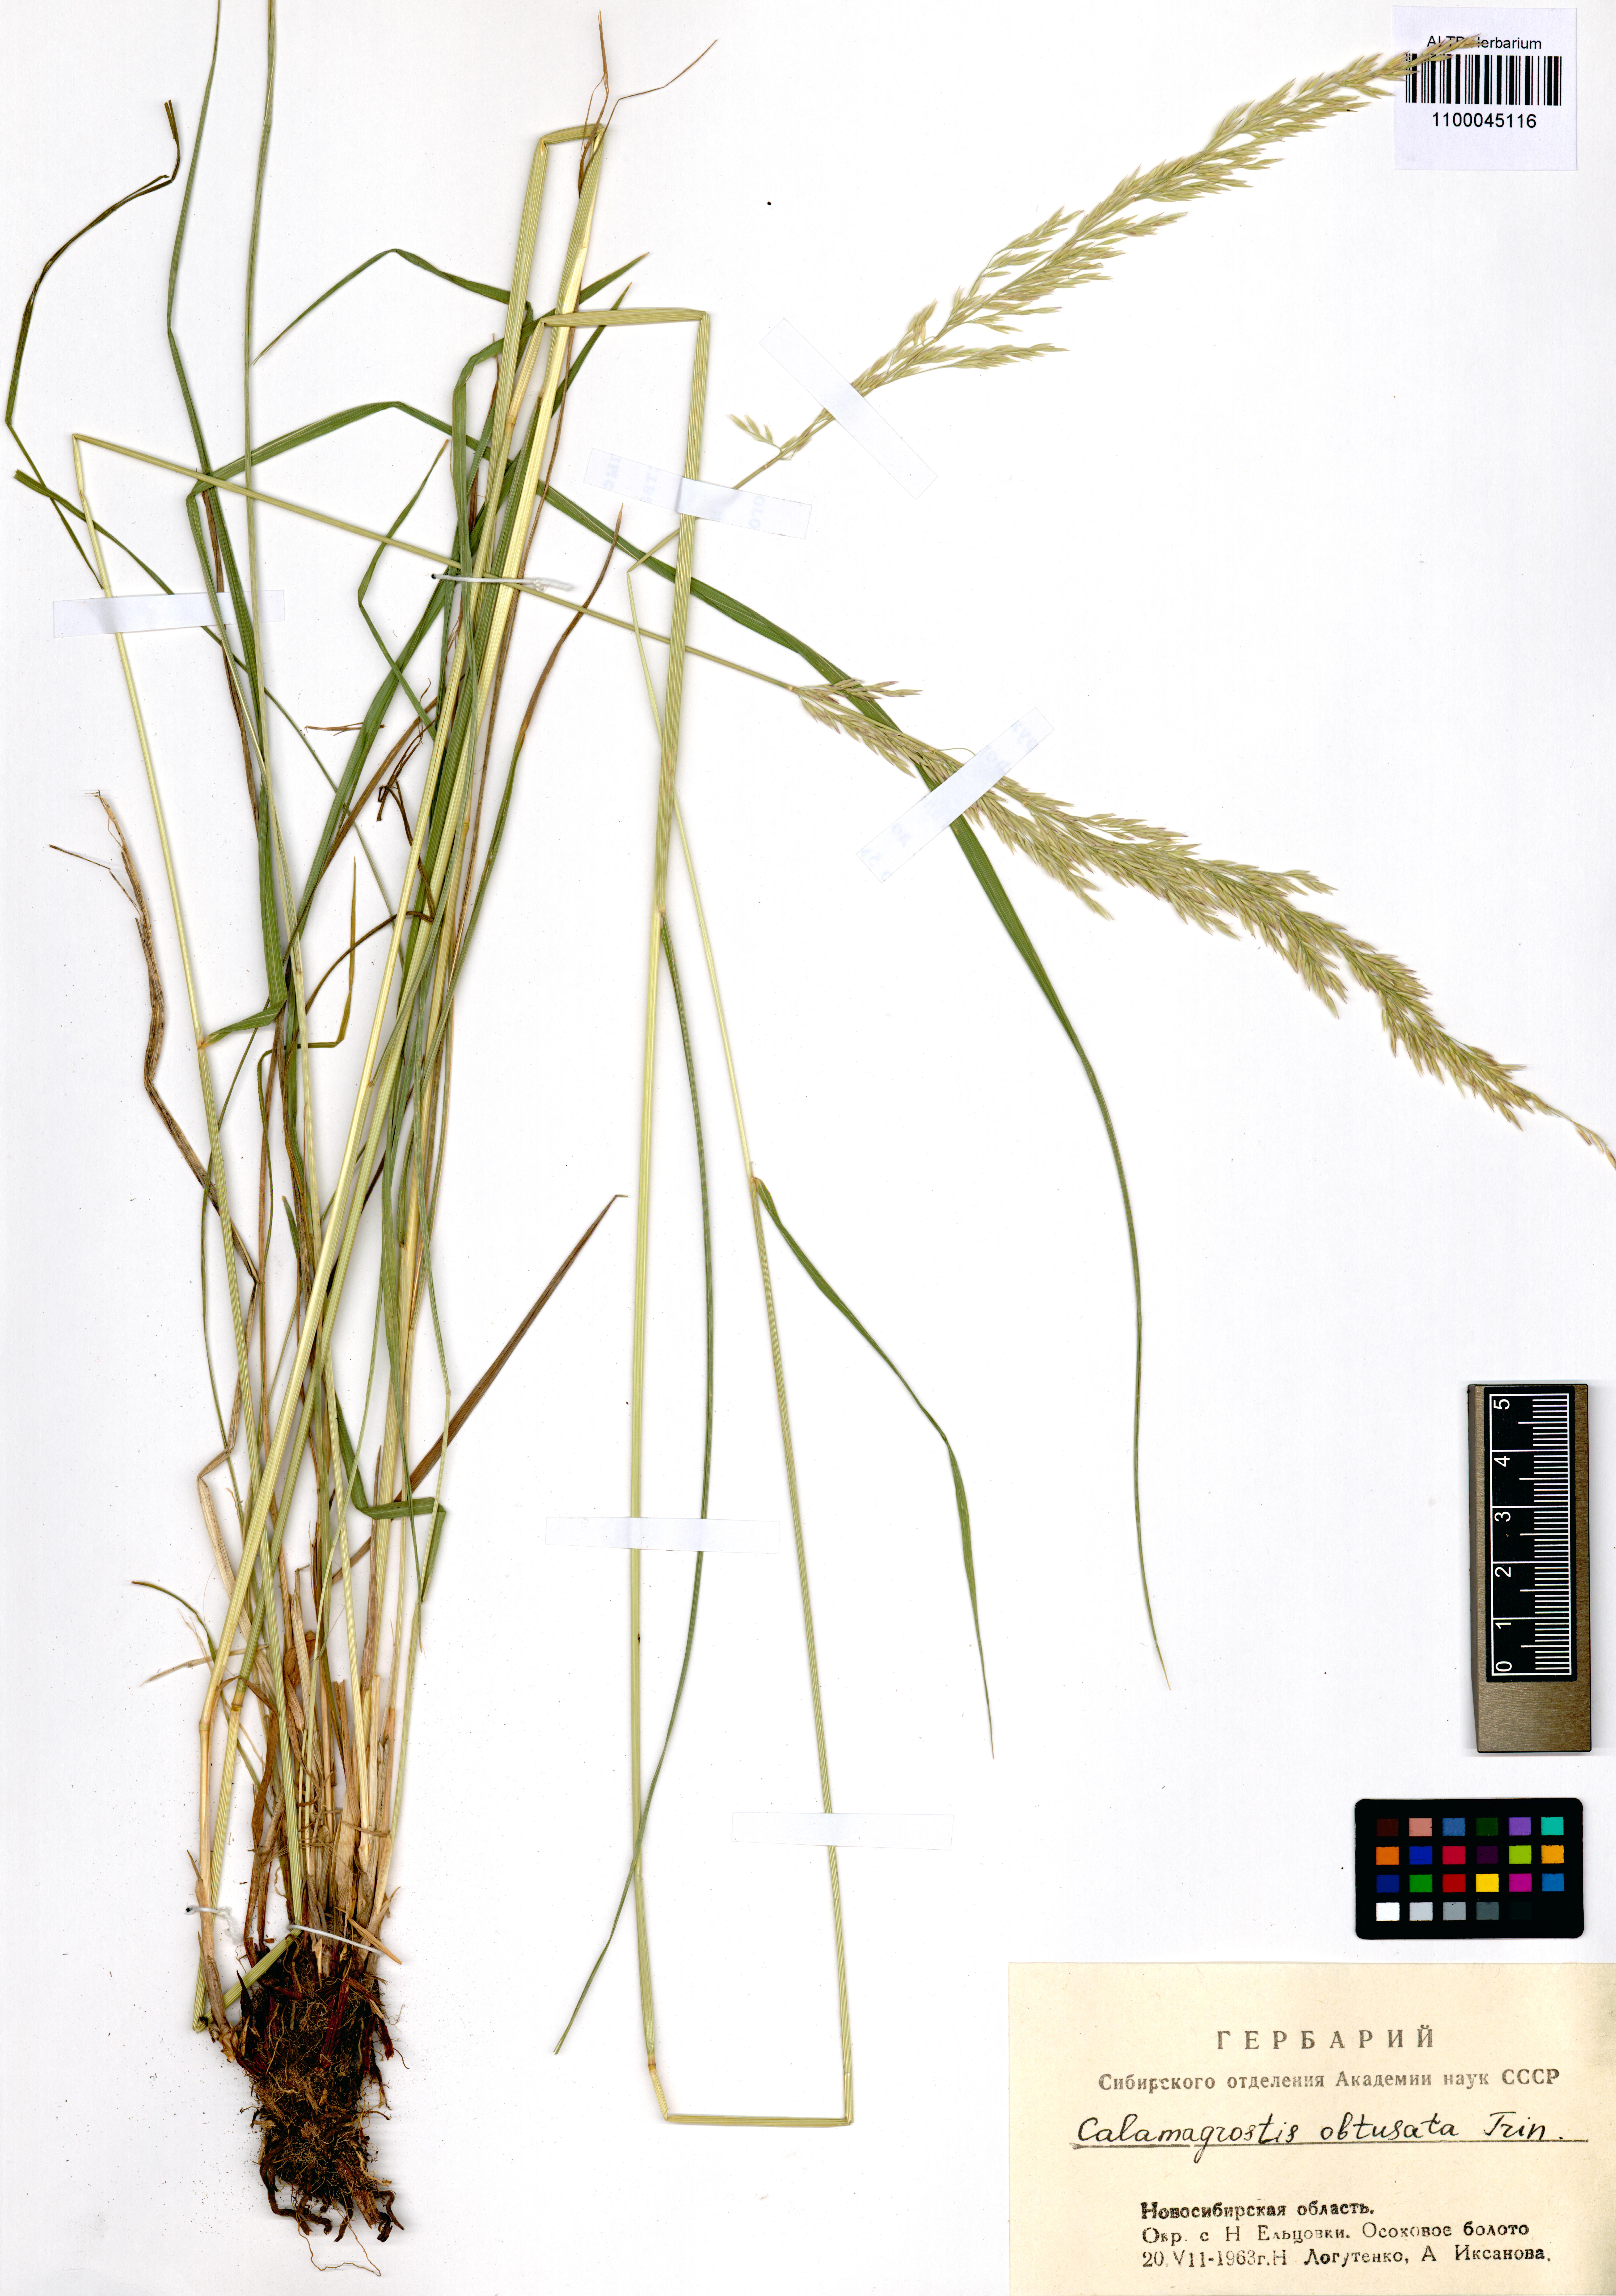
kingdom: Plantae
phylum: Tracheophyta
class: Liliopsida
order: Poales
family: Poaceae
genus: Calamagrostis
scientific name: Calamagrostis obtusata
